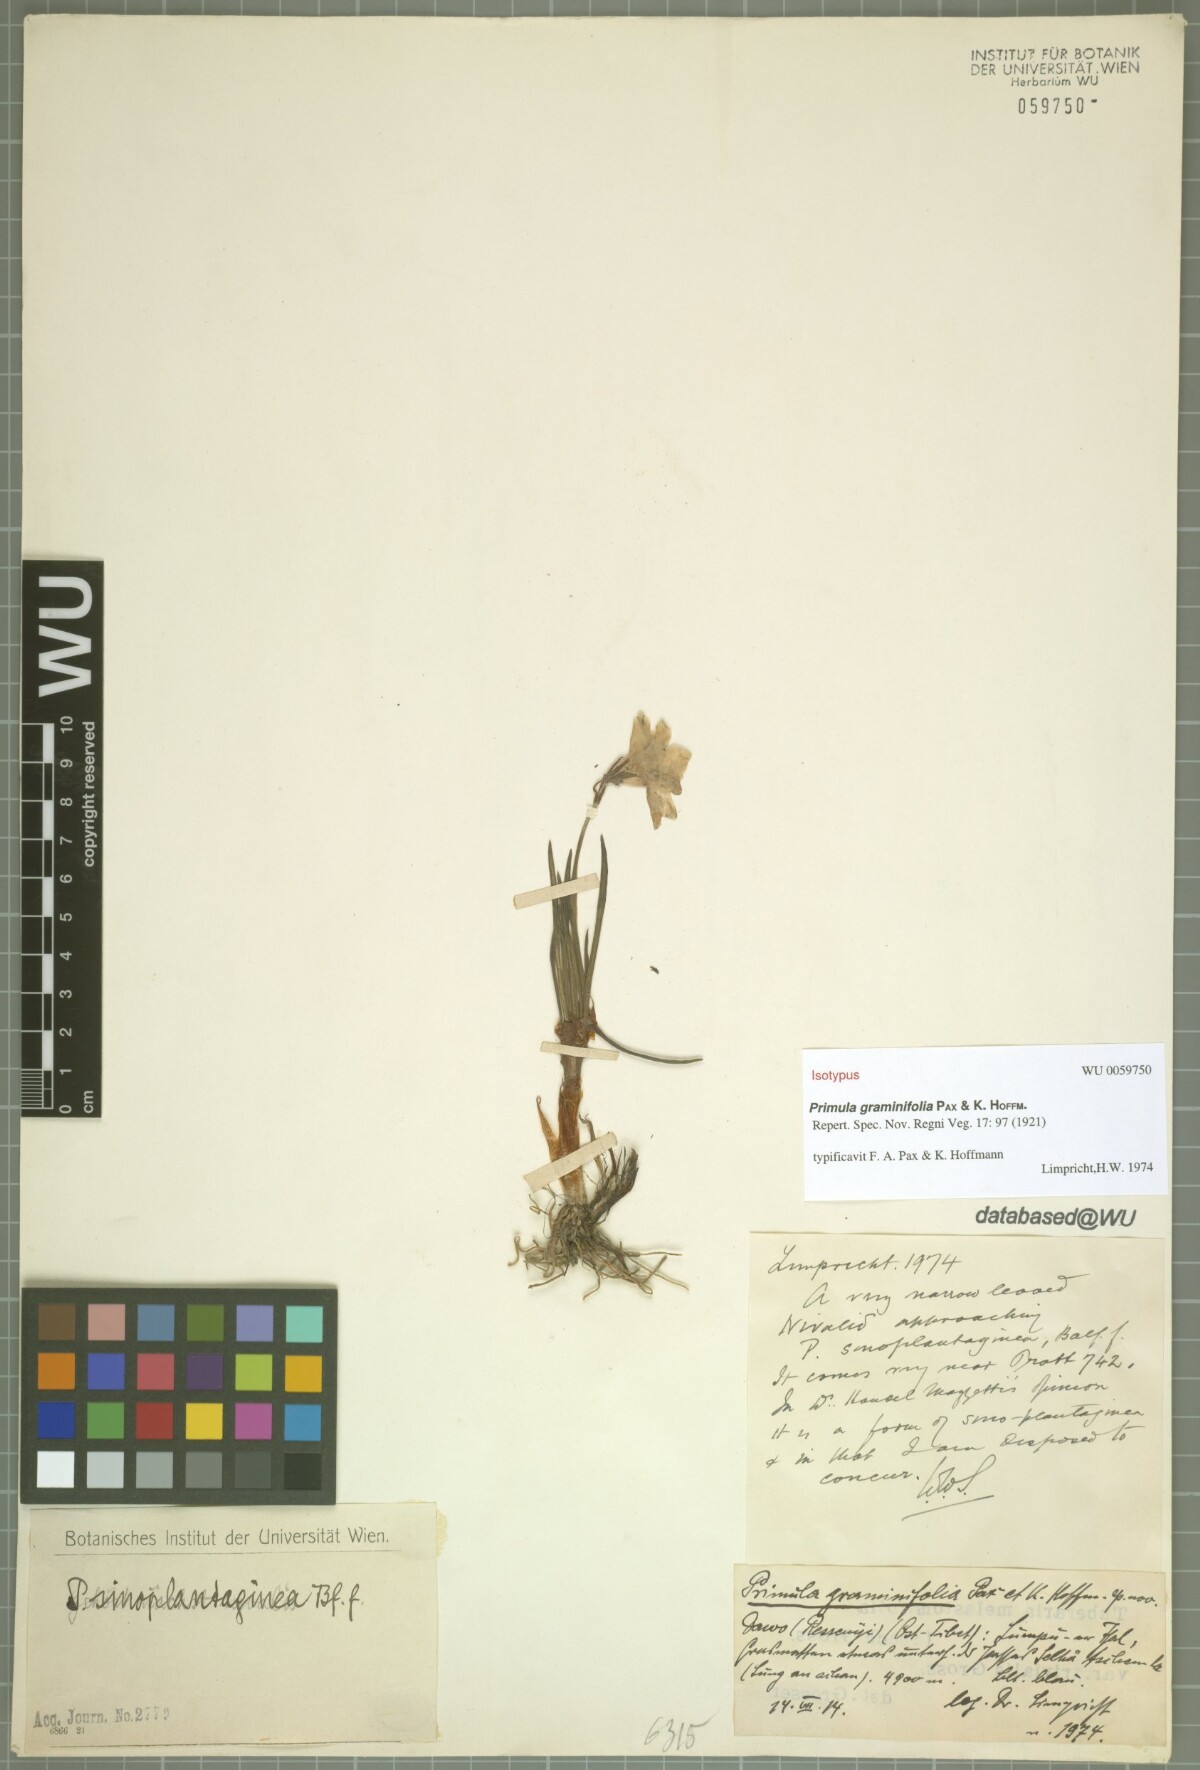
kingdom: Plantae
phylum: Tracheophyta
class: Magnoliopsida
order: Ericales
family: Primulaceae
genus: Primula
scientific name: Primula graminifolia
